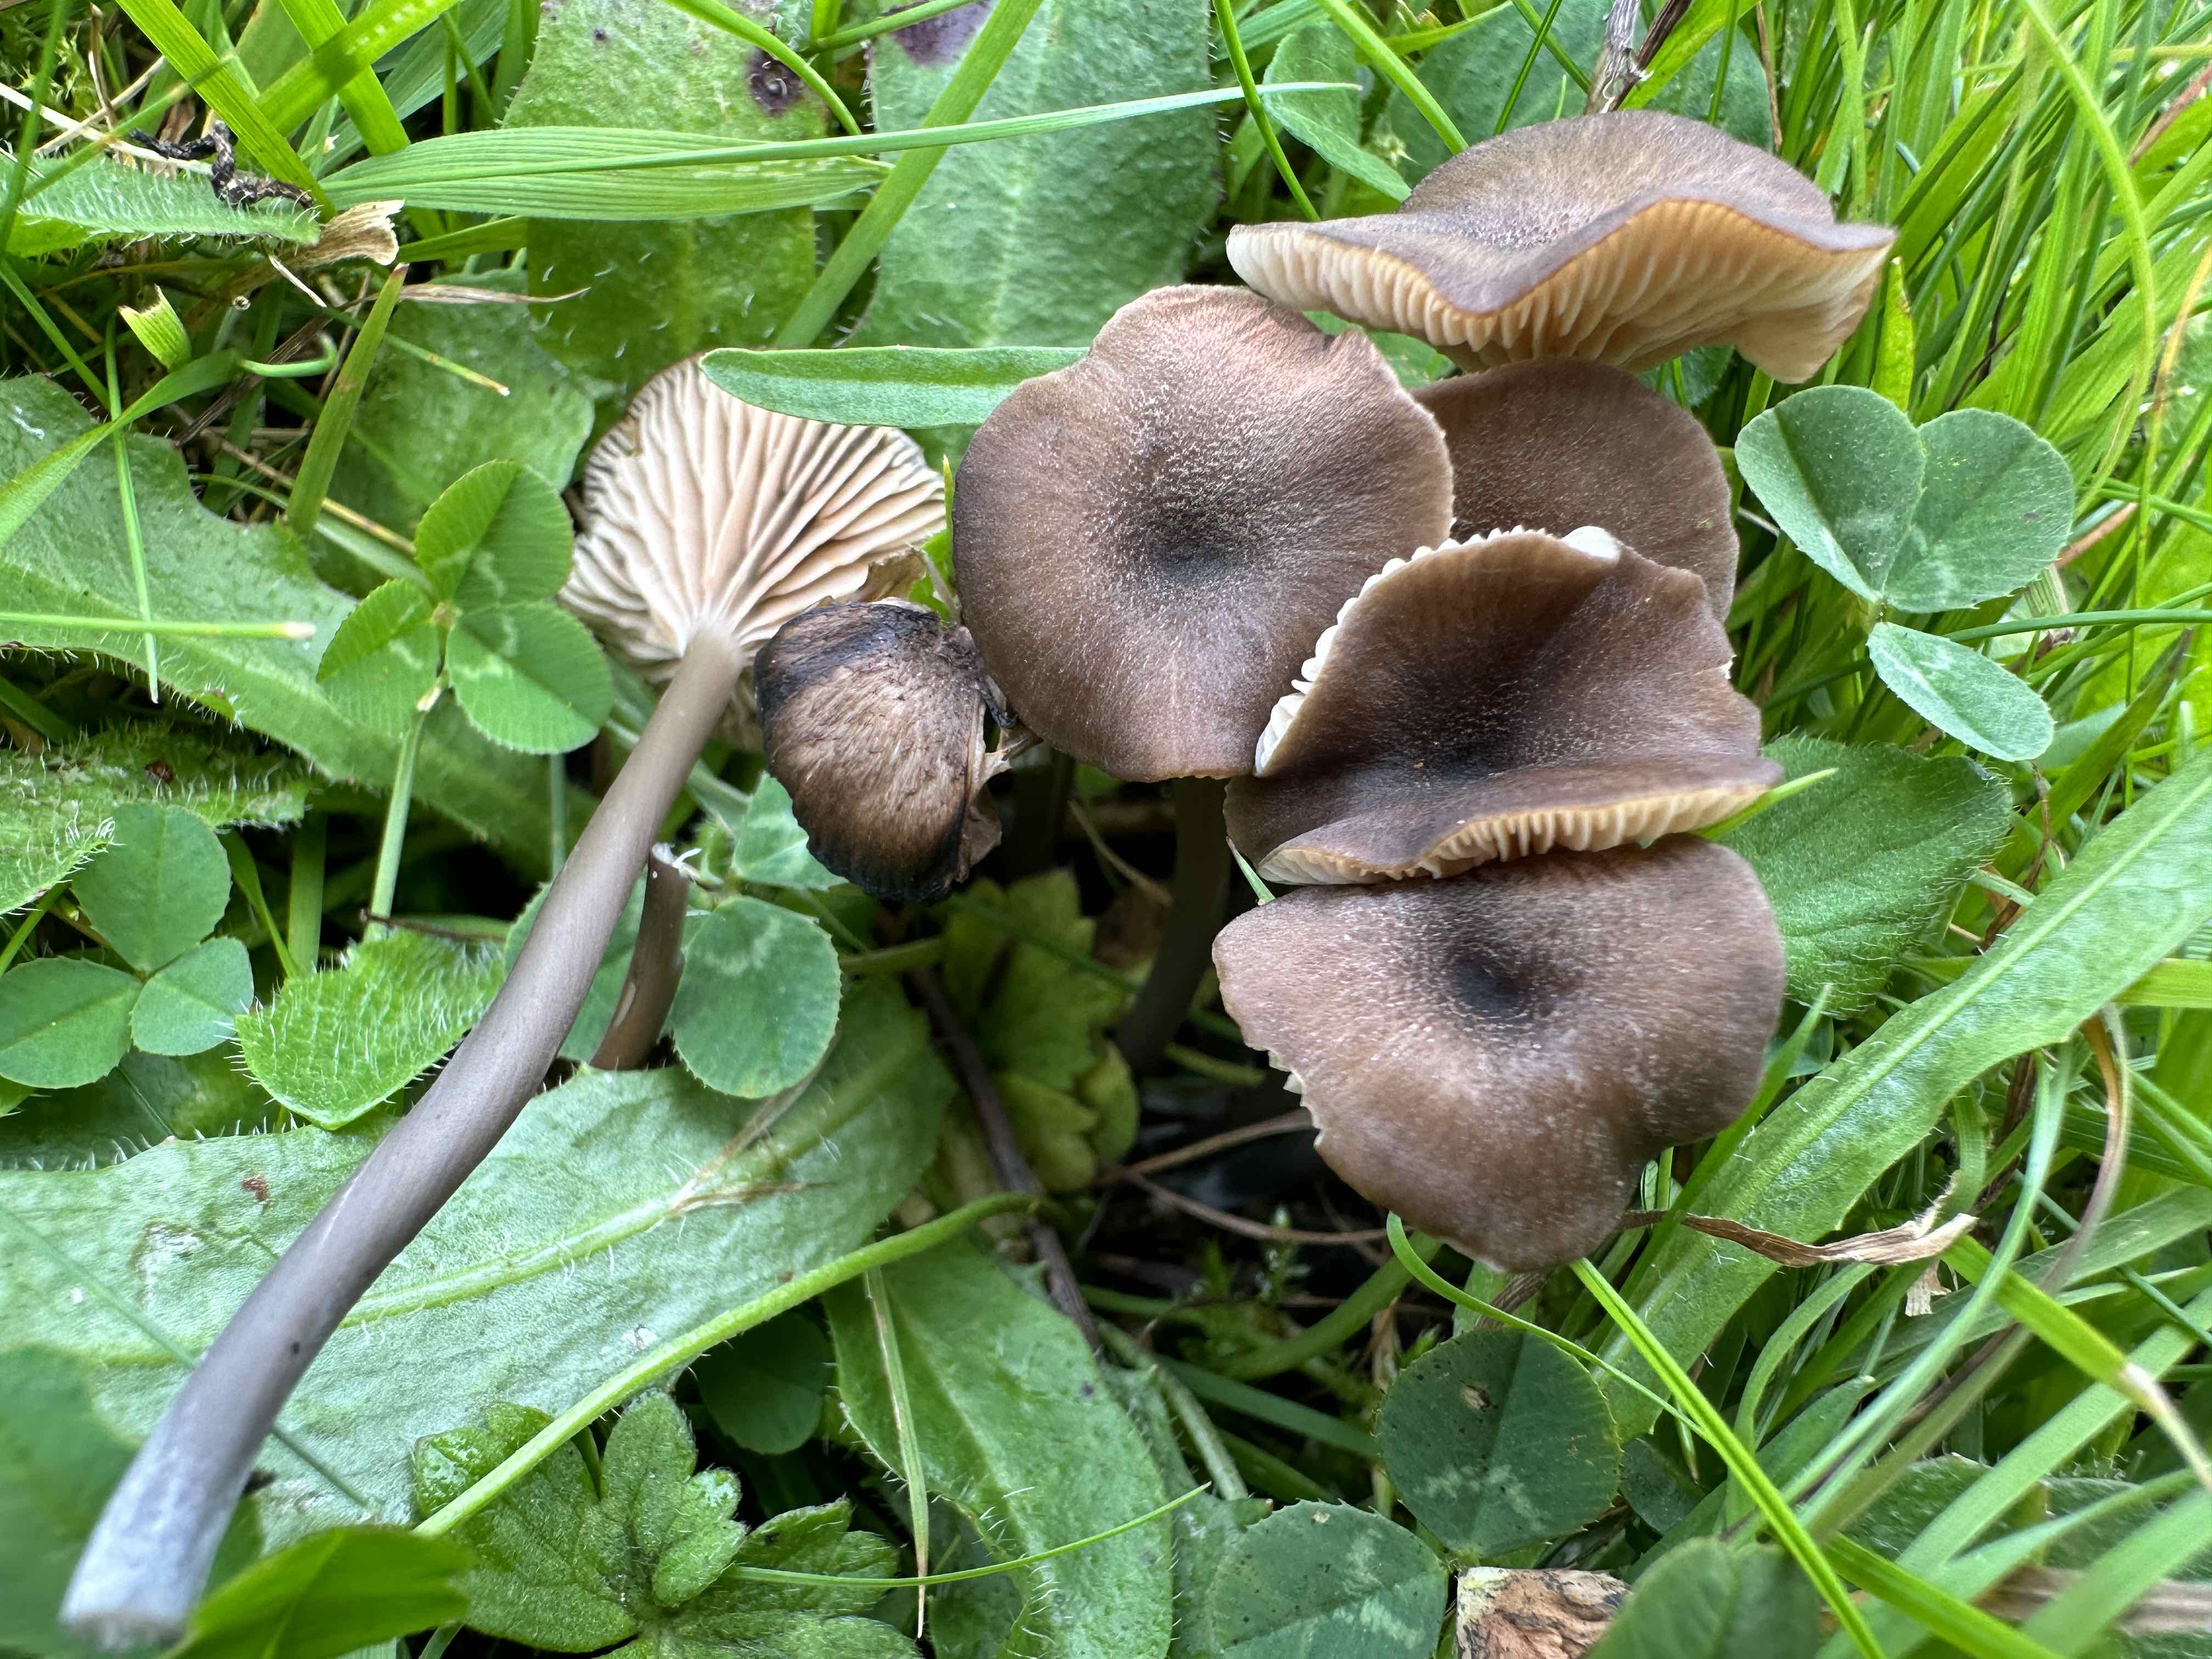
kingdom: Fungi
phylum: Basidiomycota
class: Agaricomycetes
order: Agaricales
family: Entolomataceae
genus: Entoloma
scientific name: Entoloma
